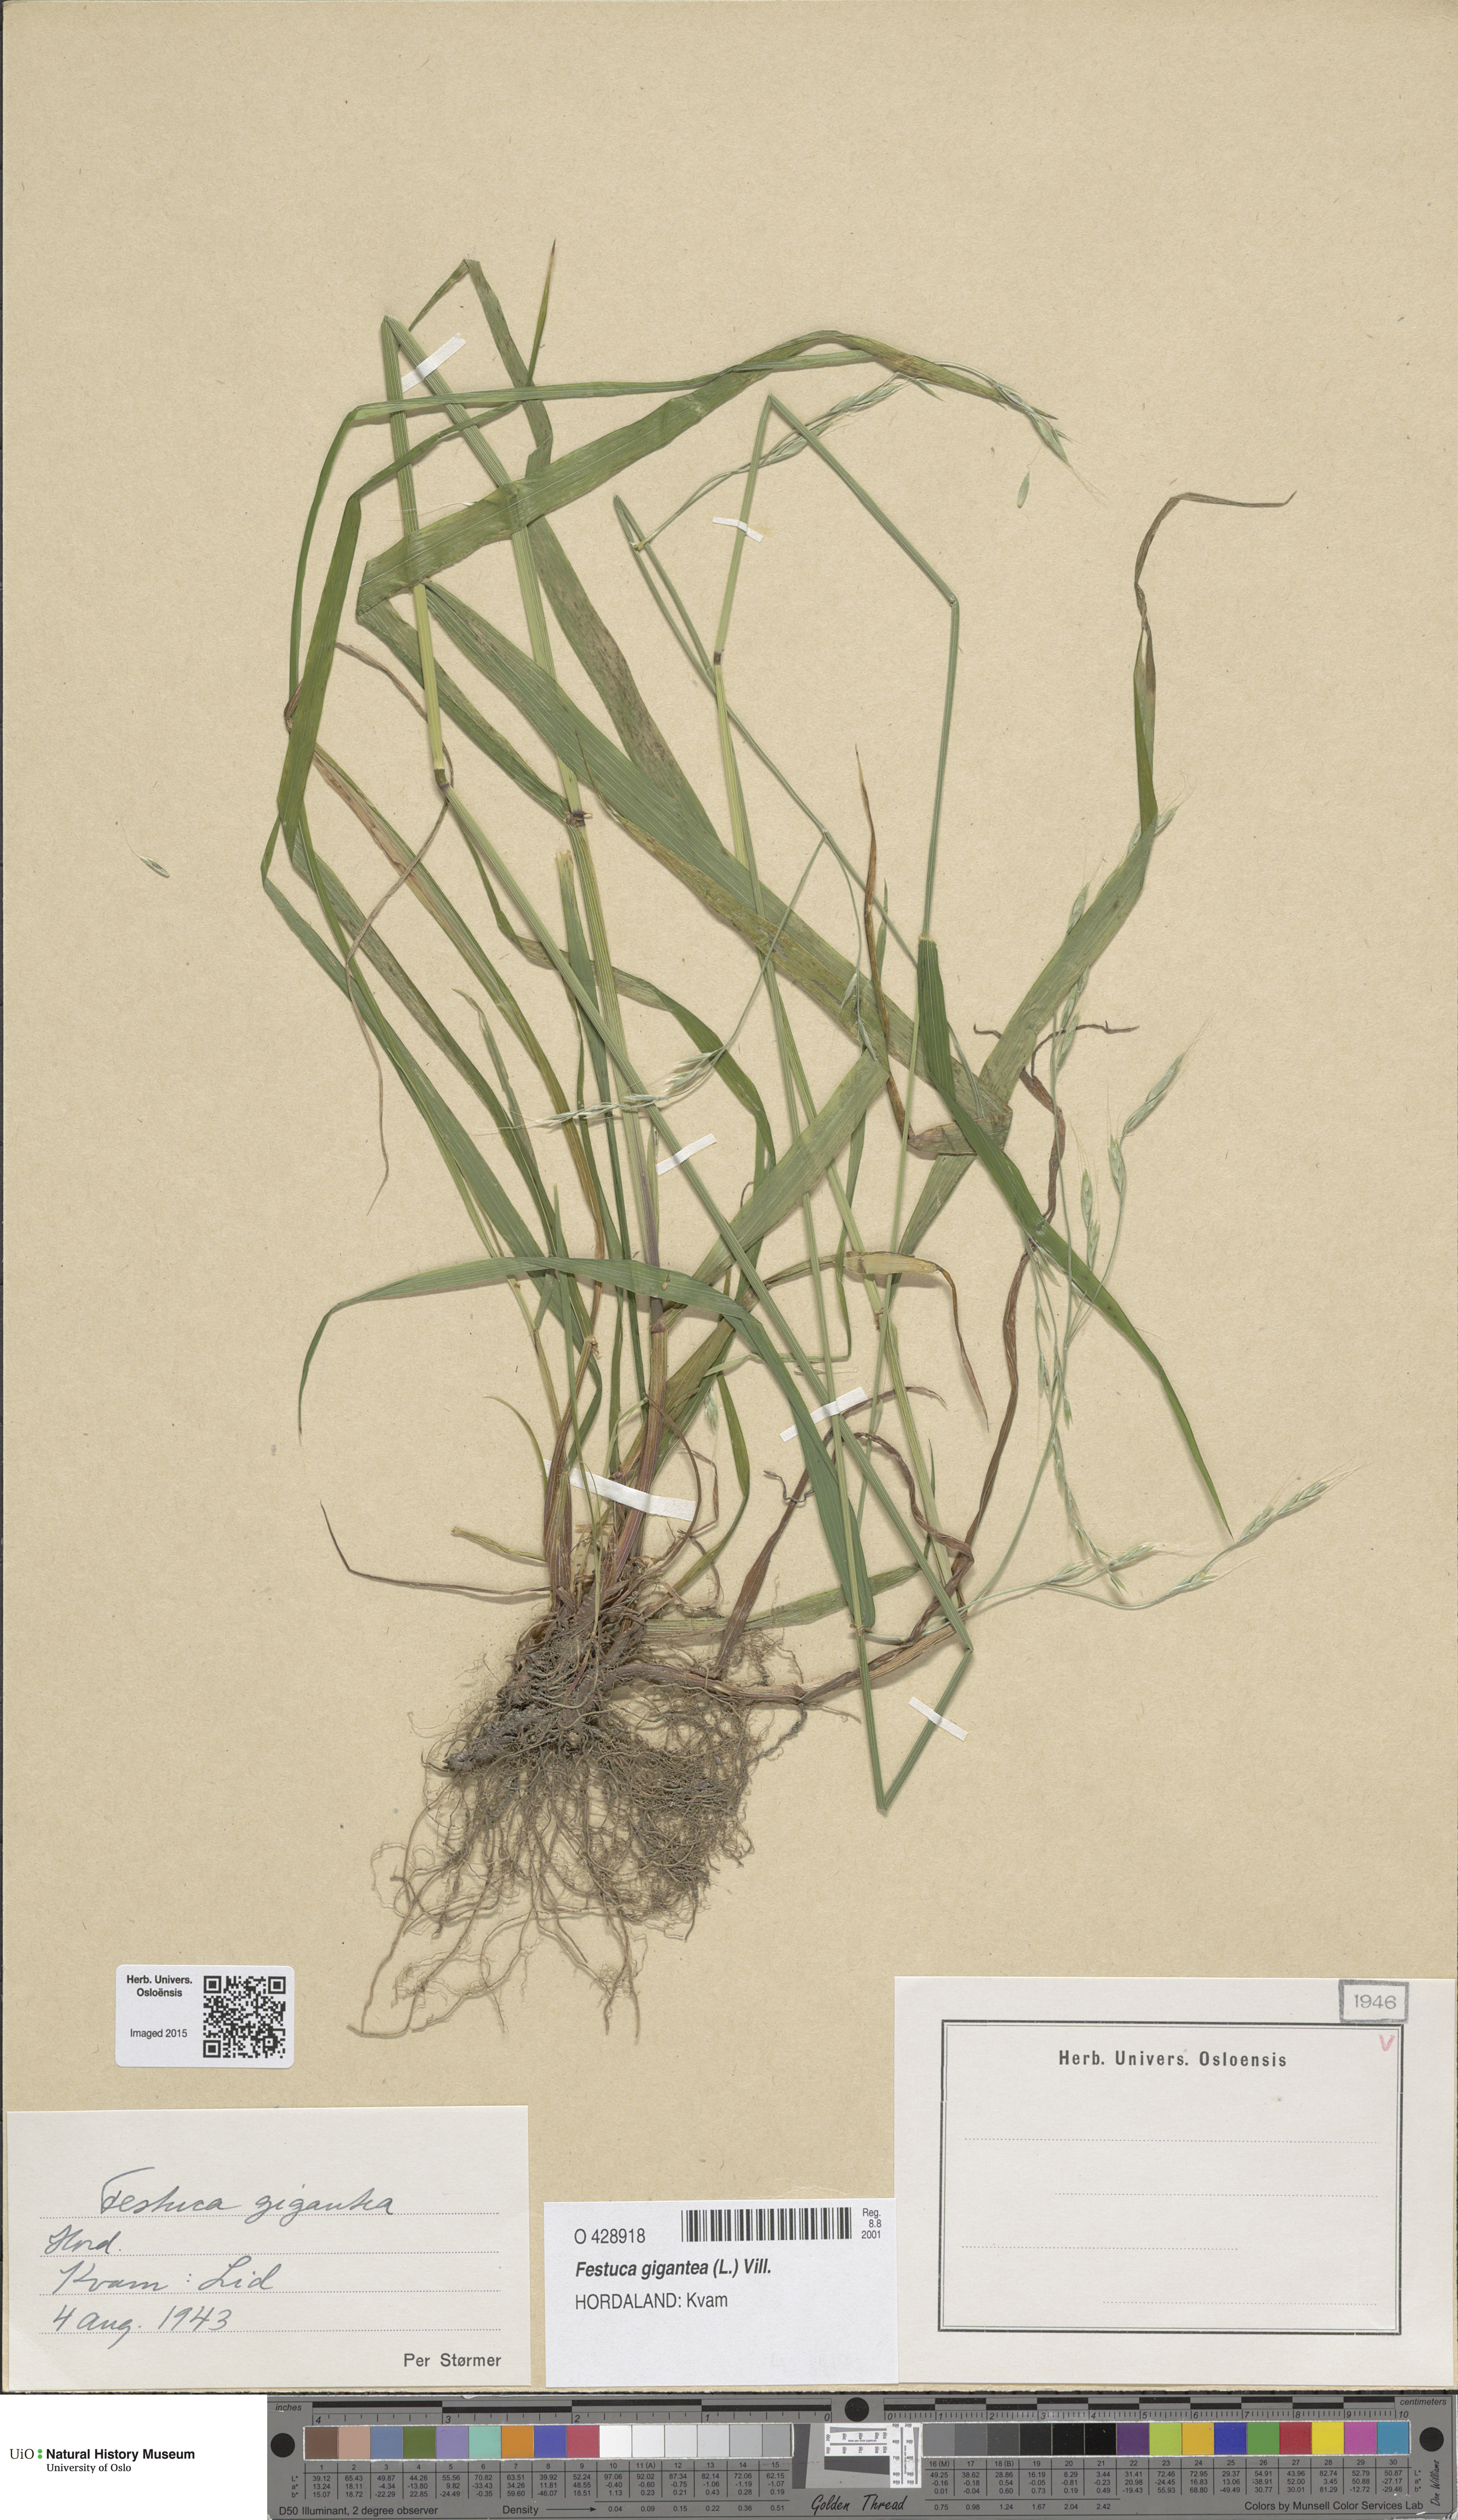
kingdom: Plantae
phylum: Tracheophyta
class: Liliopsida
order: Poales
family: Poaceae
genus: Lolium
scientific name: Lolium giganteum
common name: Giant fescue
